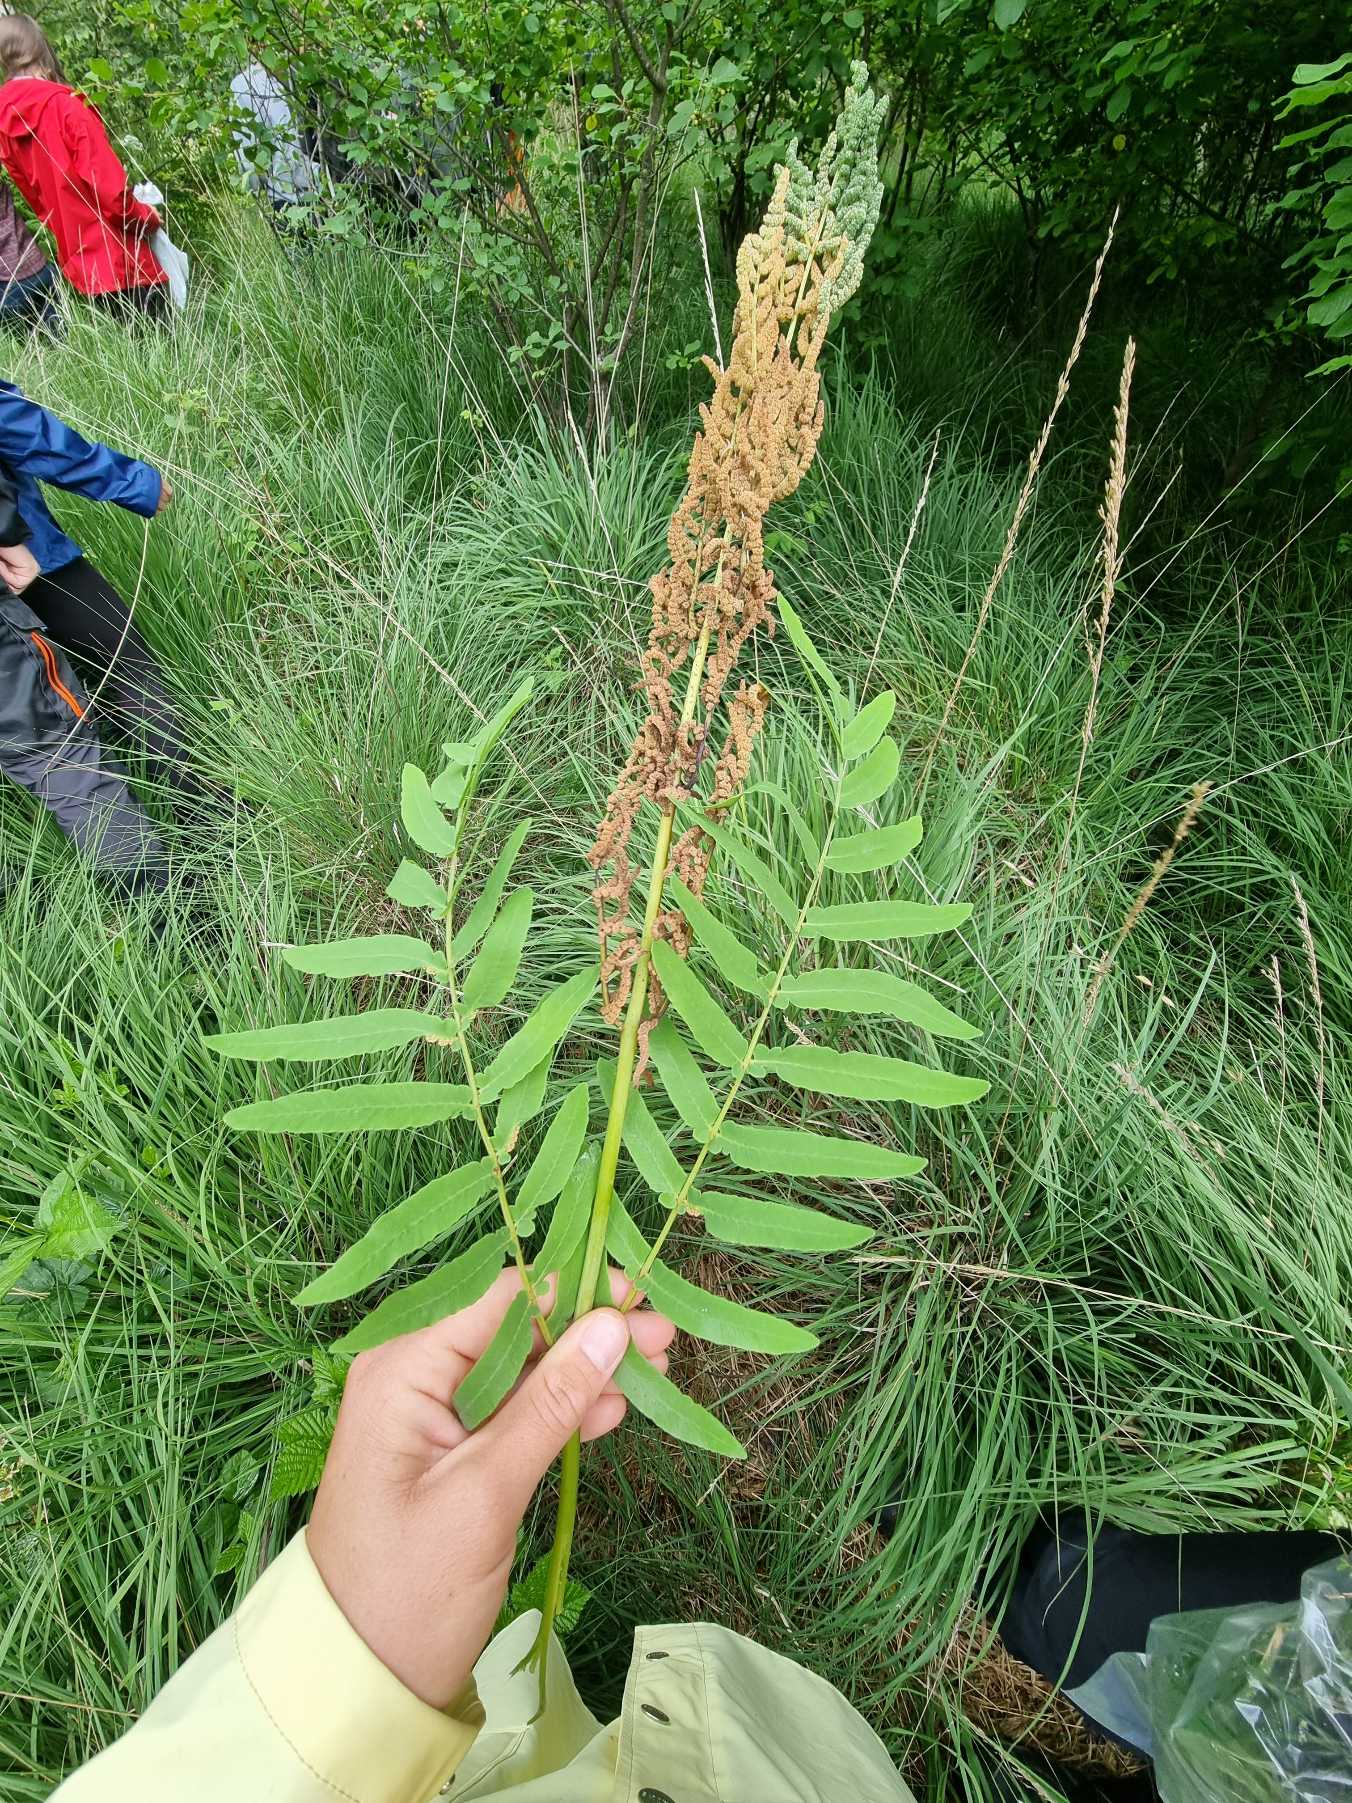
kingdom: Plantae
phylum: Tracheophyta
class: Polypodiopsida
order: Osmundales
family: Osmundaceae
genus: Osmunda
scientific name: Osmunda regalis
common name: Kongebregne
